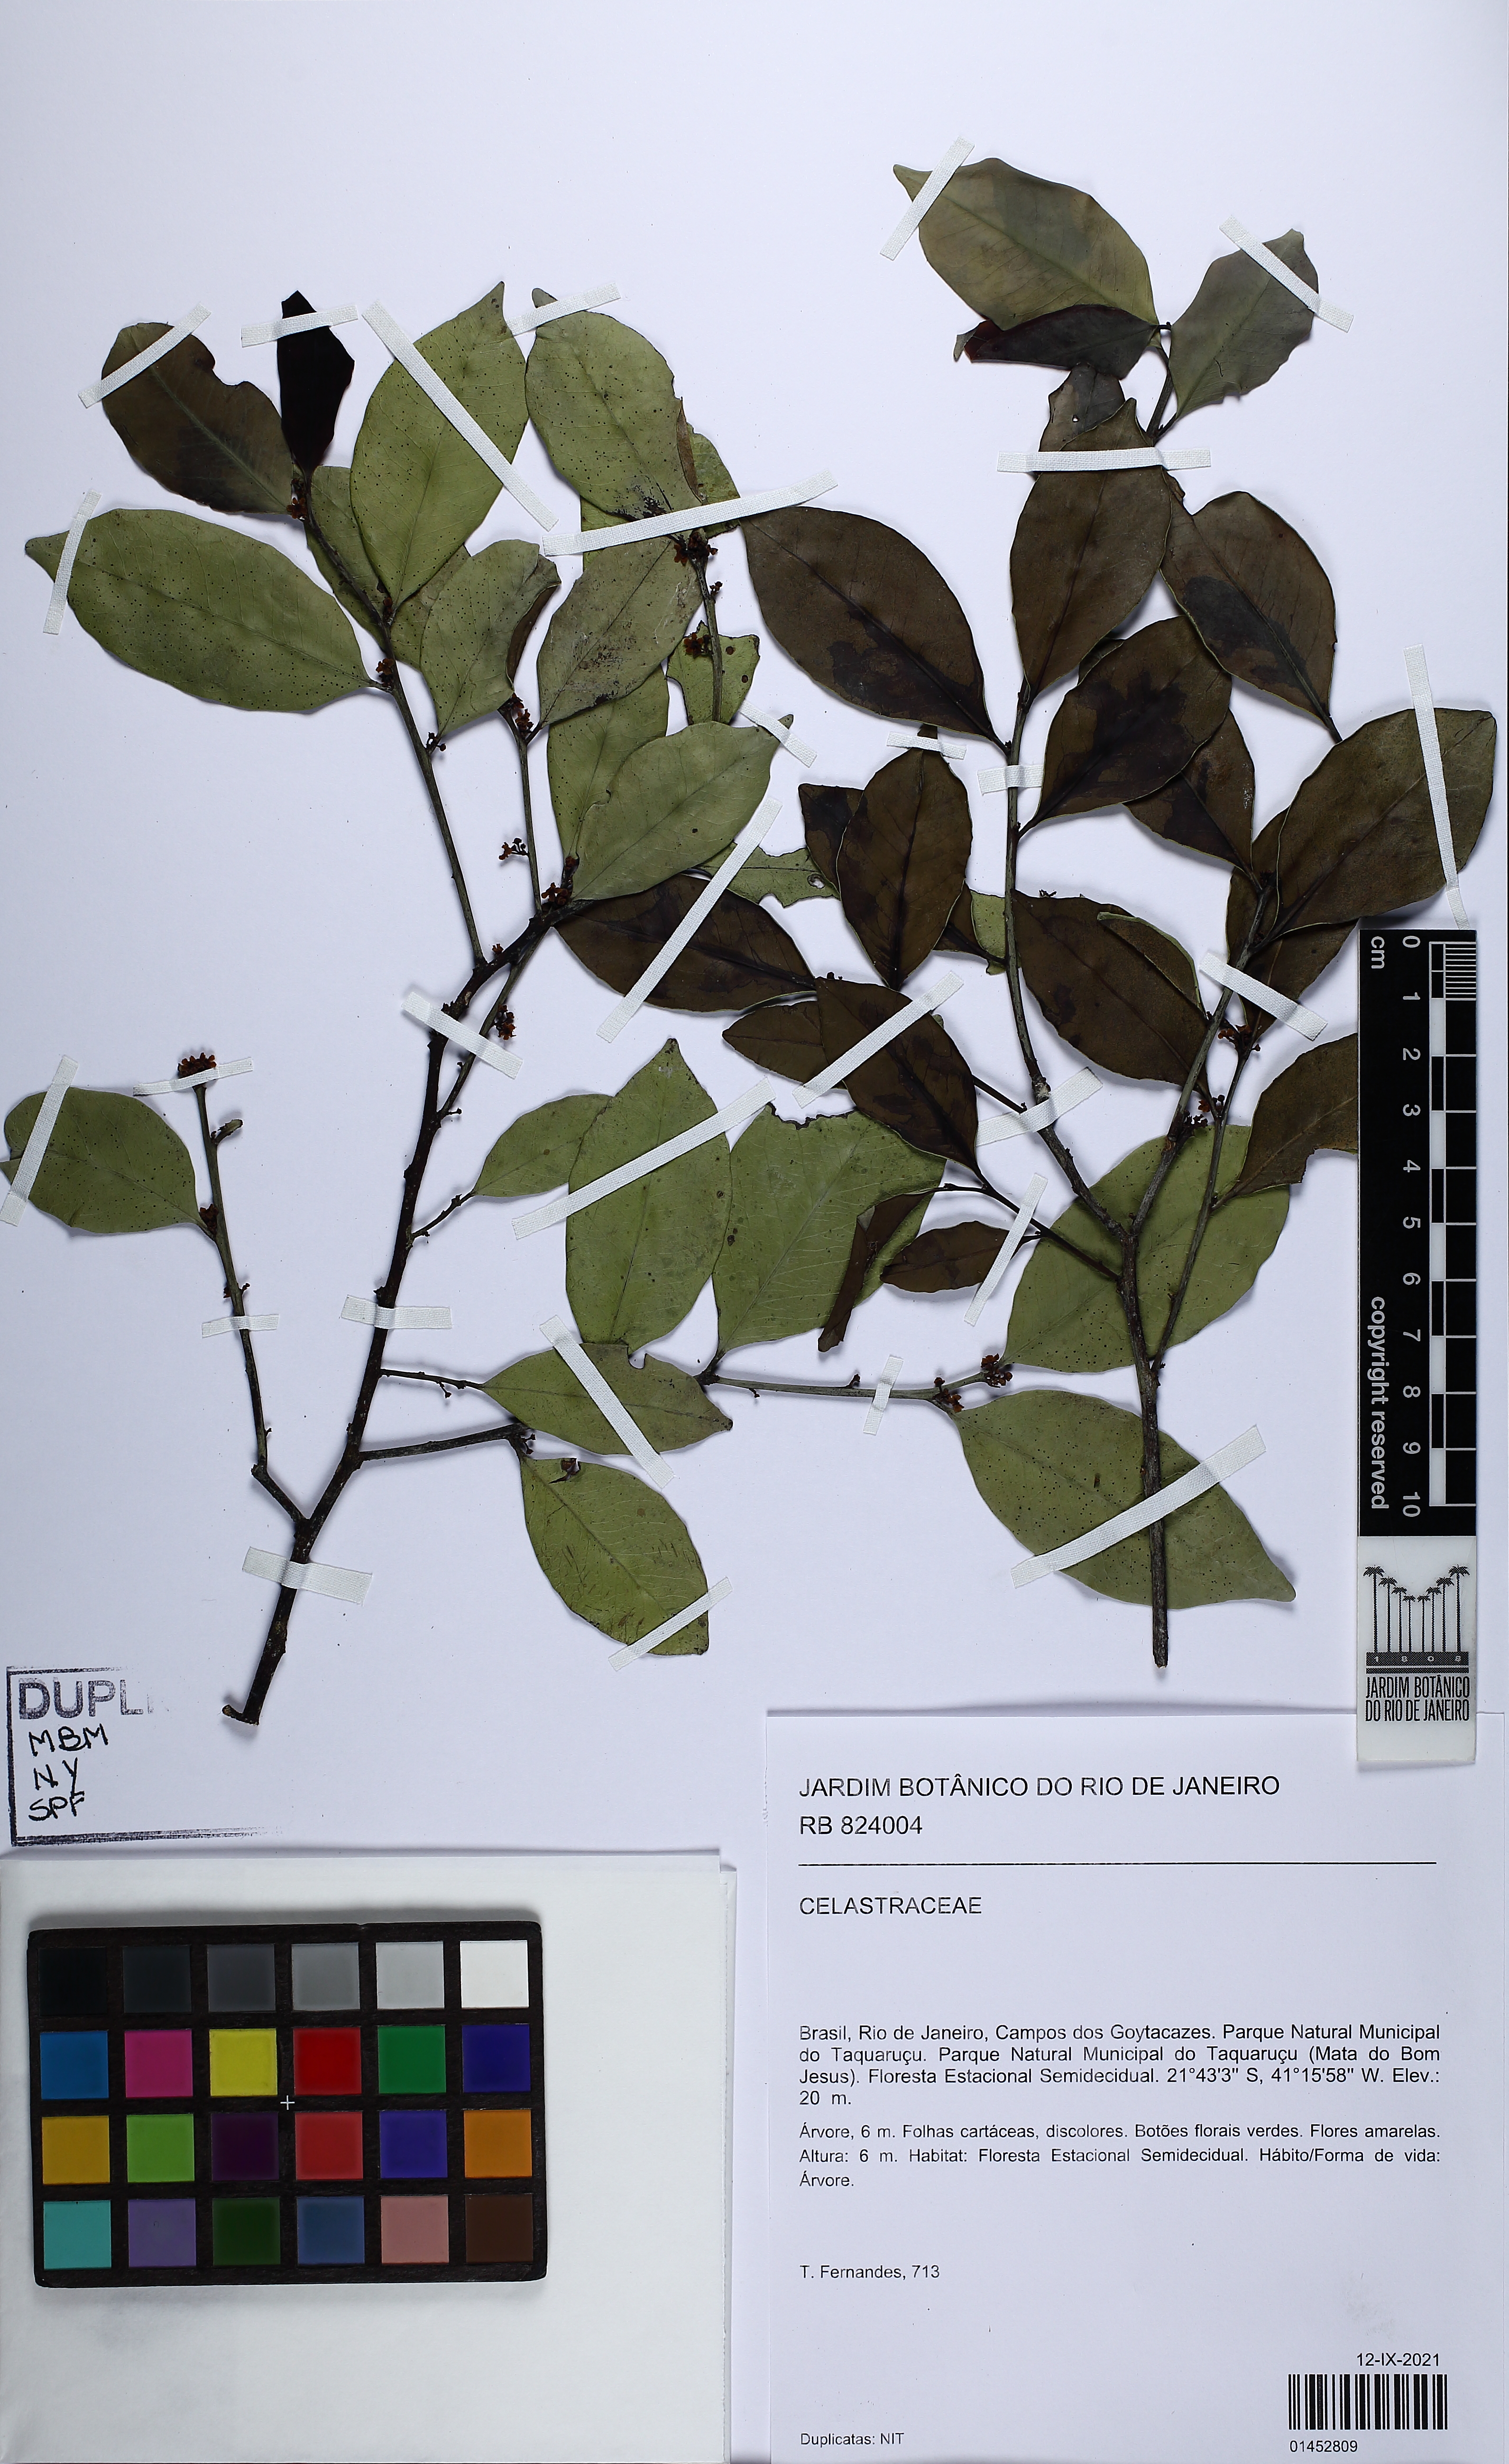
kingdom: Plantae
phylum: Tracheophyta
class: Magnoliopsida
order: Celastrales
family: Celastraceae
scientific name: Celastraceae
